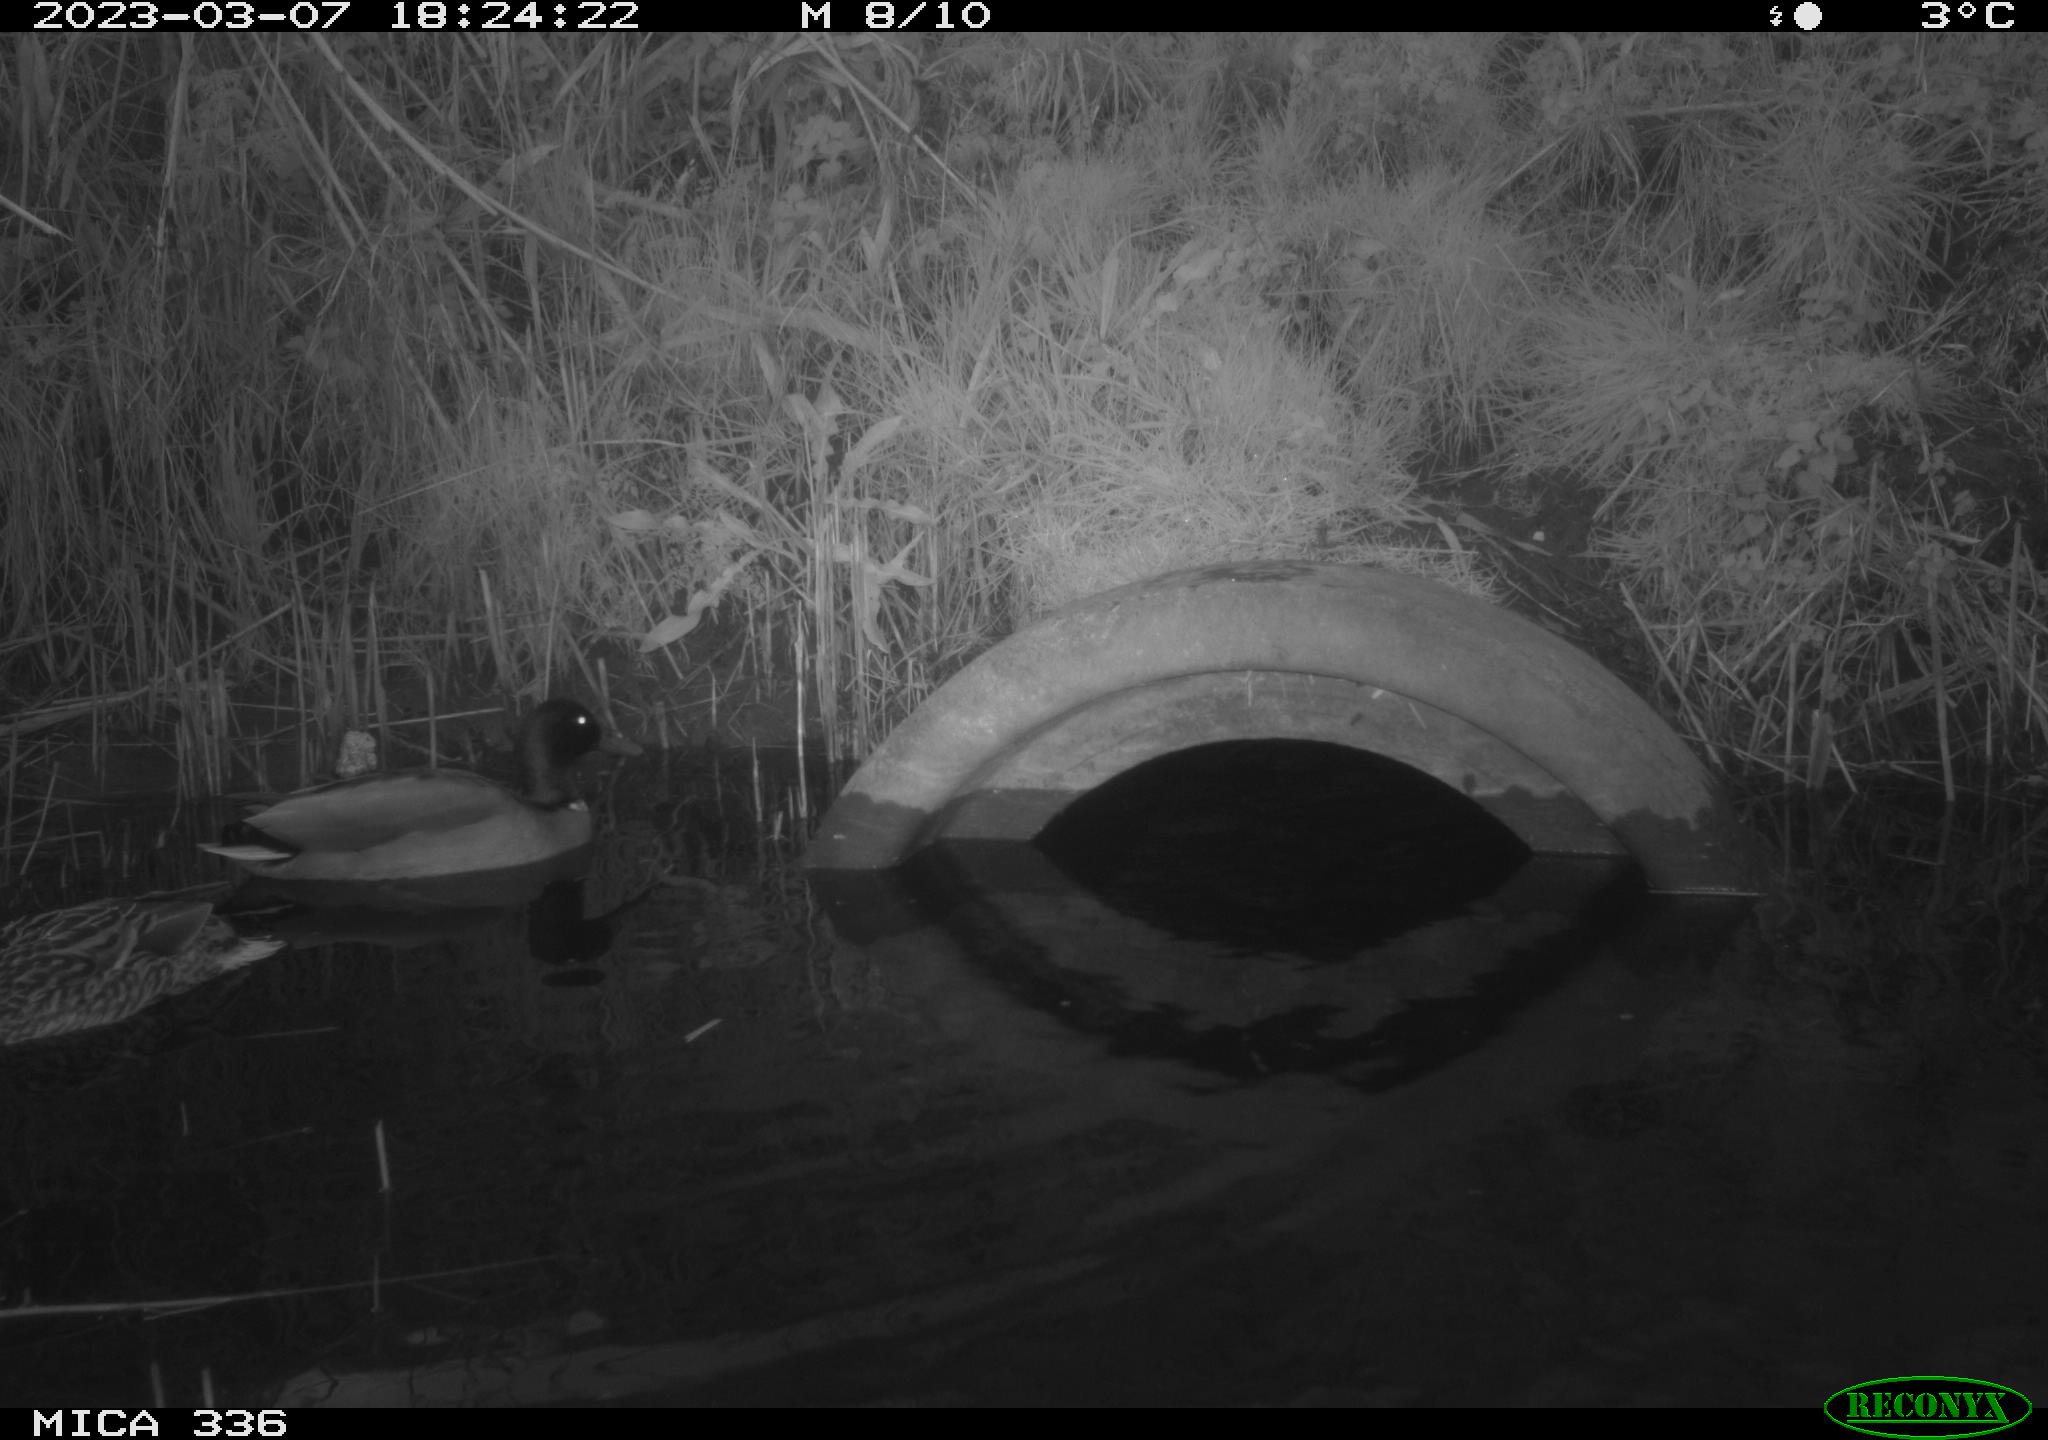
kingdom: Animalia
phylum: Chordata
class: Aves
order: Anseriformes
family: Anatidae
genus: Anas
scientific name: Anas
